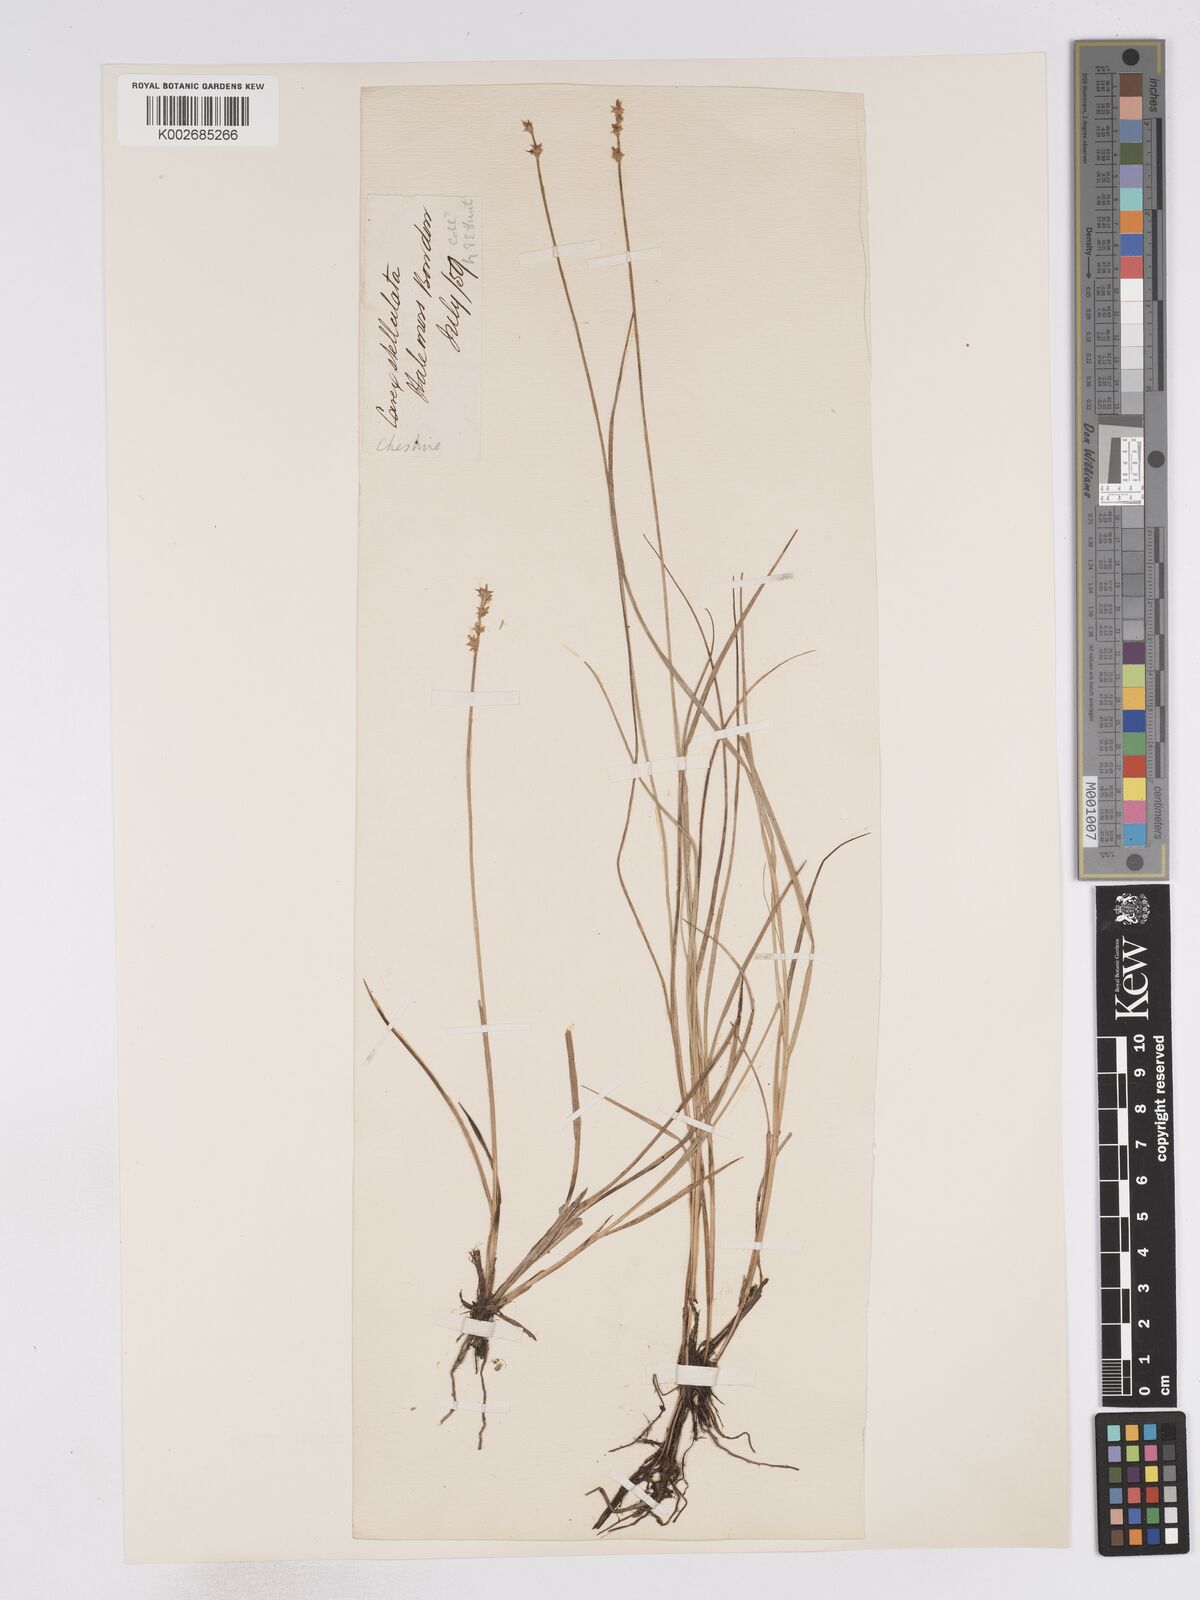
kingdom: Plantae
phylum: Tracheophyta
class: Liliopsida
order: Poales
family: Cyperaceae
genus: Carex
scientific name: Carex echinata
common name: Star sedge
